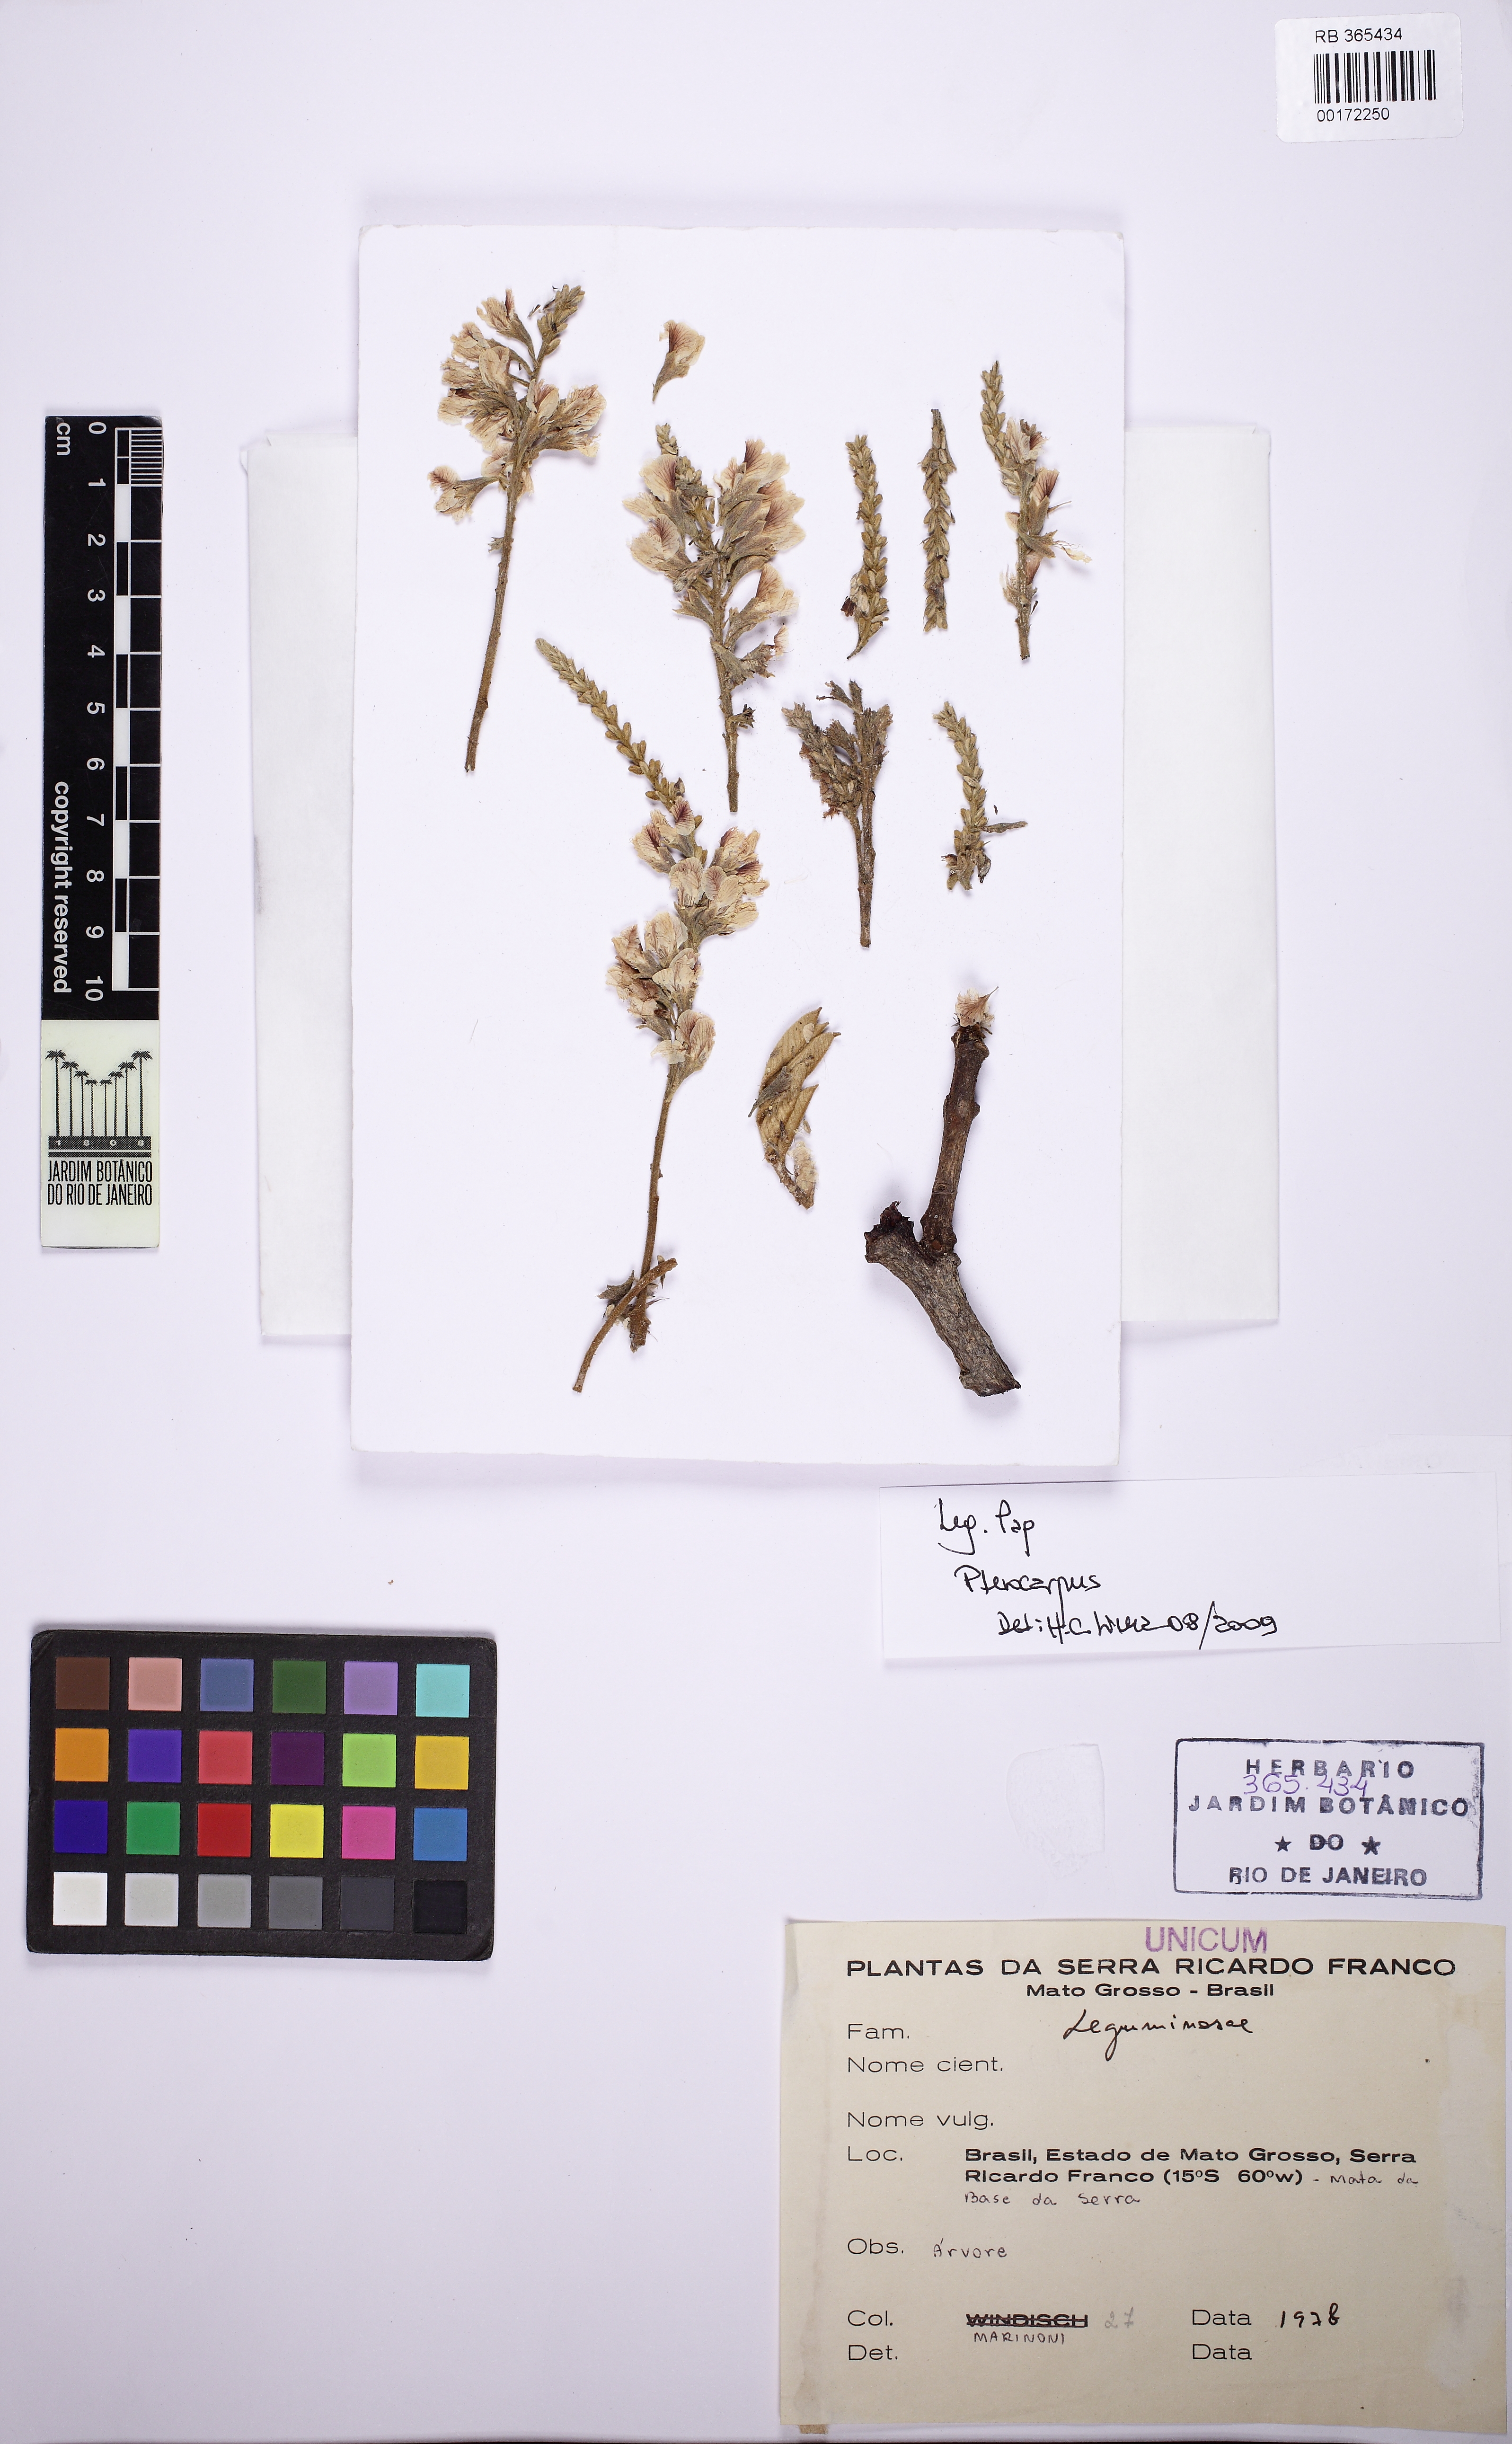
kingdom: Plantae
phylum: Tracheophyta
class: Magnoliopsida
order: Fabales
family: Fabaceae
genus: Pterocarpus
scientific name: Pterocarpus
